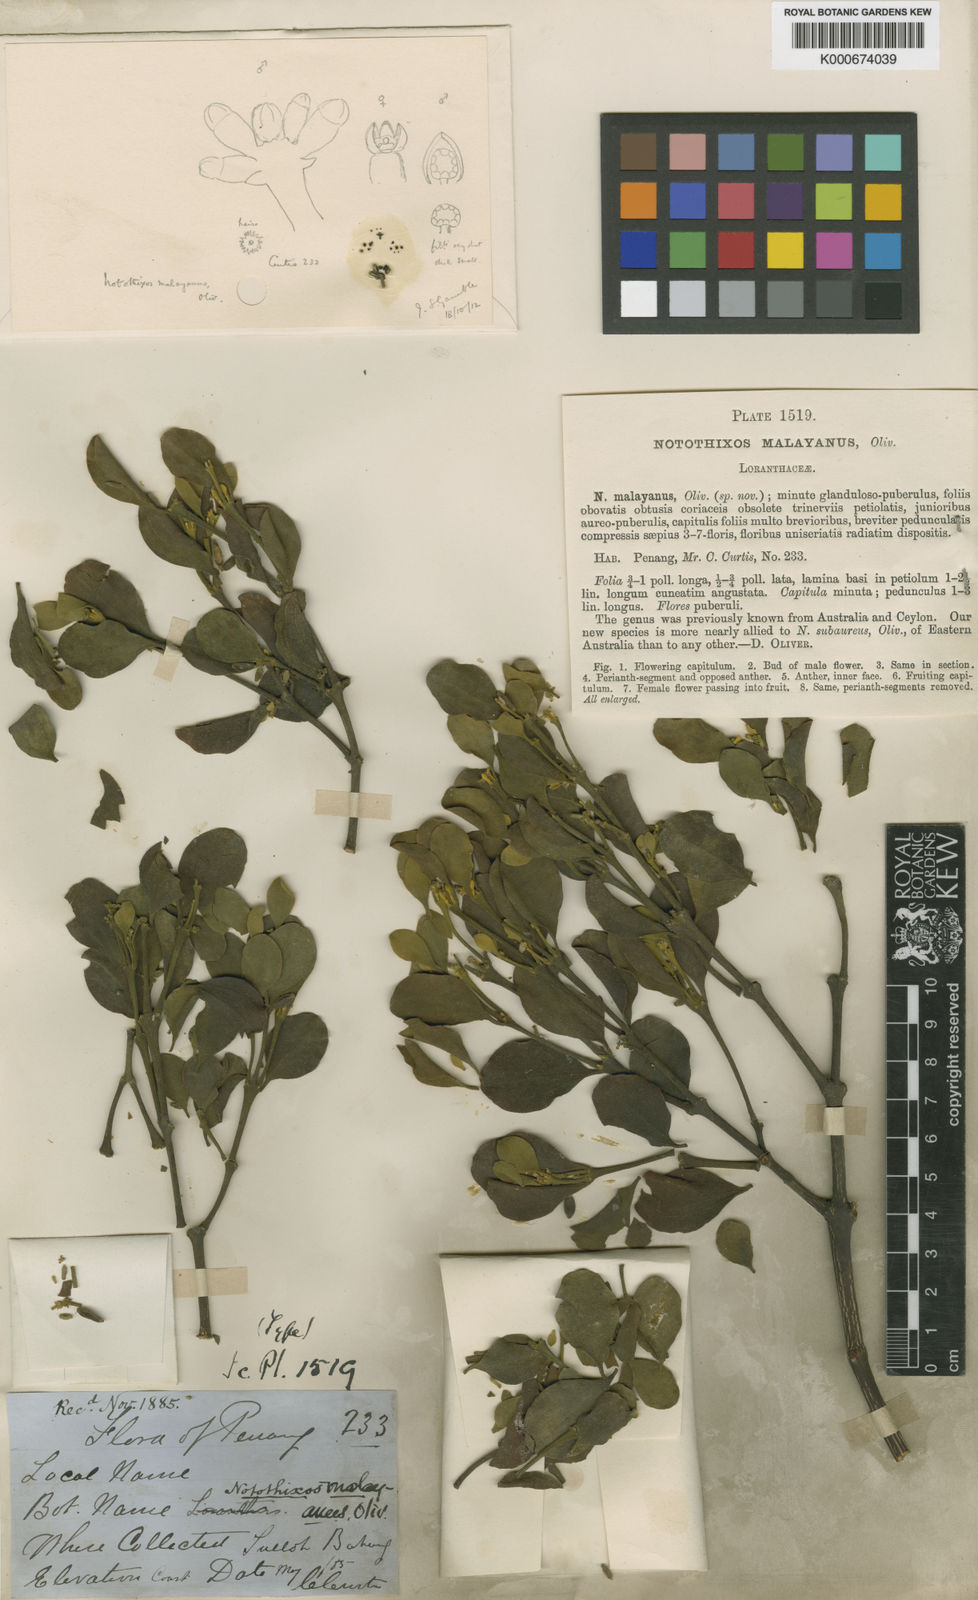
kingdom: Plantae
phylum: Tracheophyta
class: Magnoliopsida
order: Santalales
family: Viscaceae
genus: Notothixos
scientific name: Notothixos malayanus
